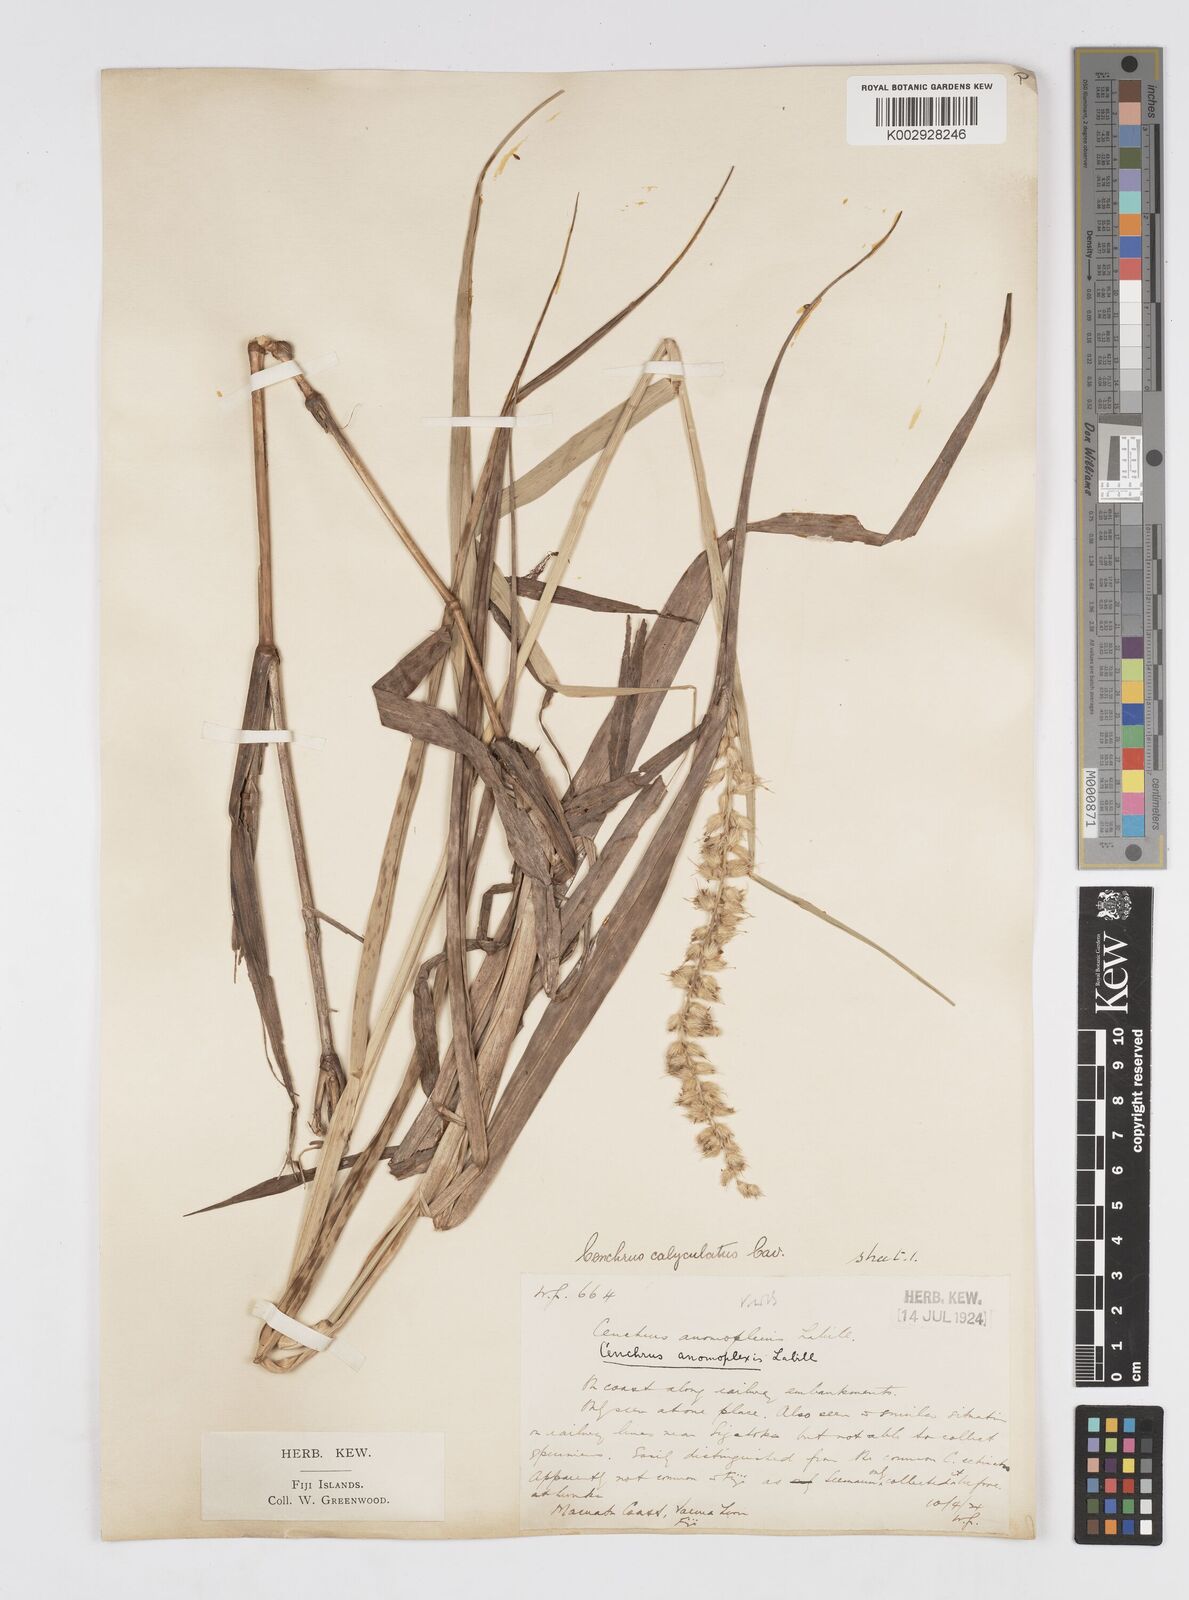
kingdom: Plantae
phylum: Tracheophyta
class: Liliopsida
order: Poales
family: Poaceae
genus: Cenchrus
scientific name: Cenchrus caliculatus
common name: Large bur grass
